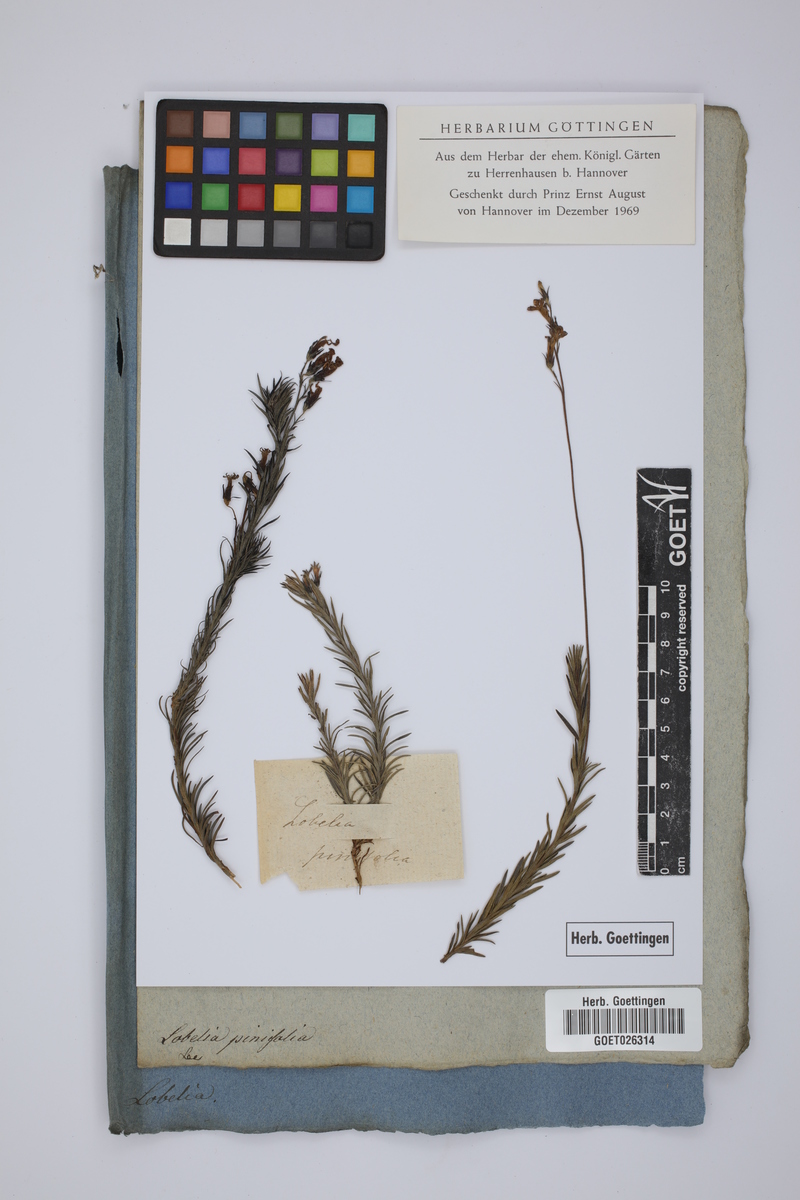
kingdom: Plantae
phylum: Tracheophyta
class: Magnoliopsida
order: Asterales
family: Campanulaceae
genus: Monopsis
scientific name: Monopsis unidentata
